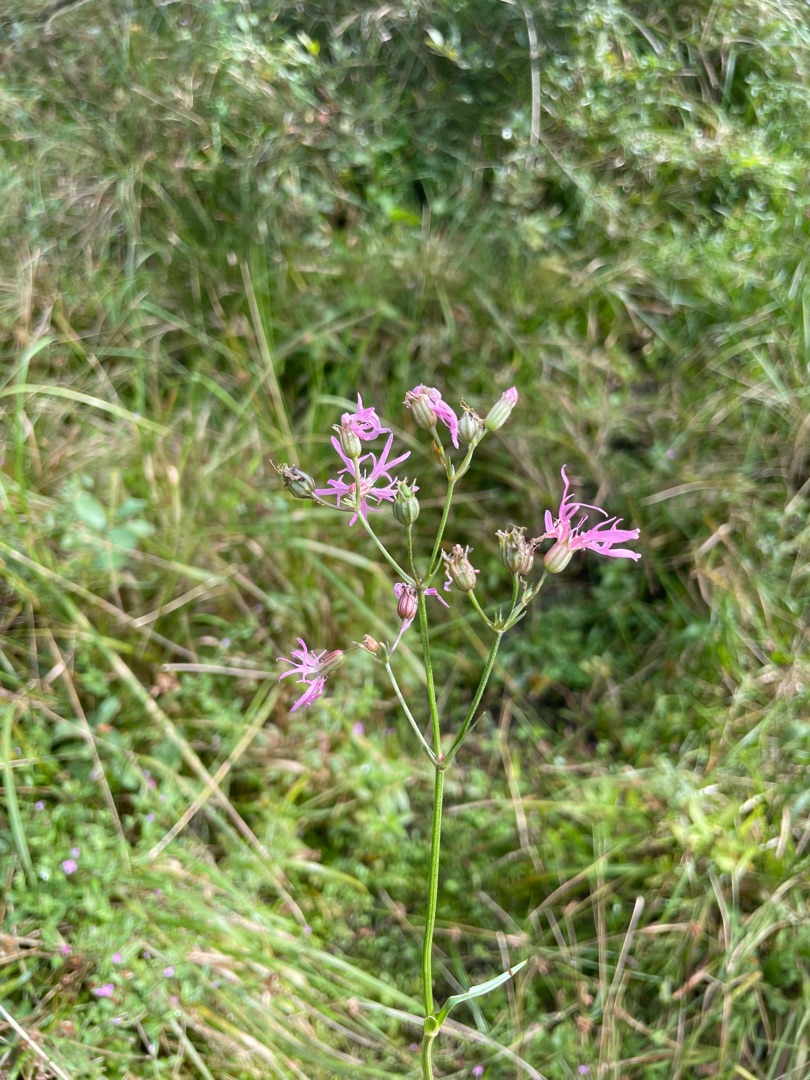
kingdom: Plantae
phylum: Tracheophyta
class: Magnoliopsida
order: Caryophyllales
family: Caryophyllaceae
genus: Silene
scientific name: Silene flos-cuculi
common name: Trævlekrone
